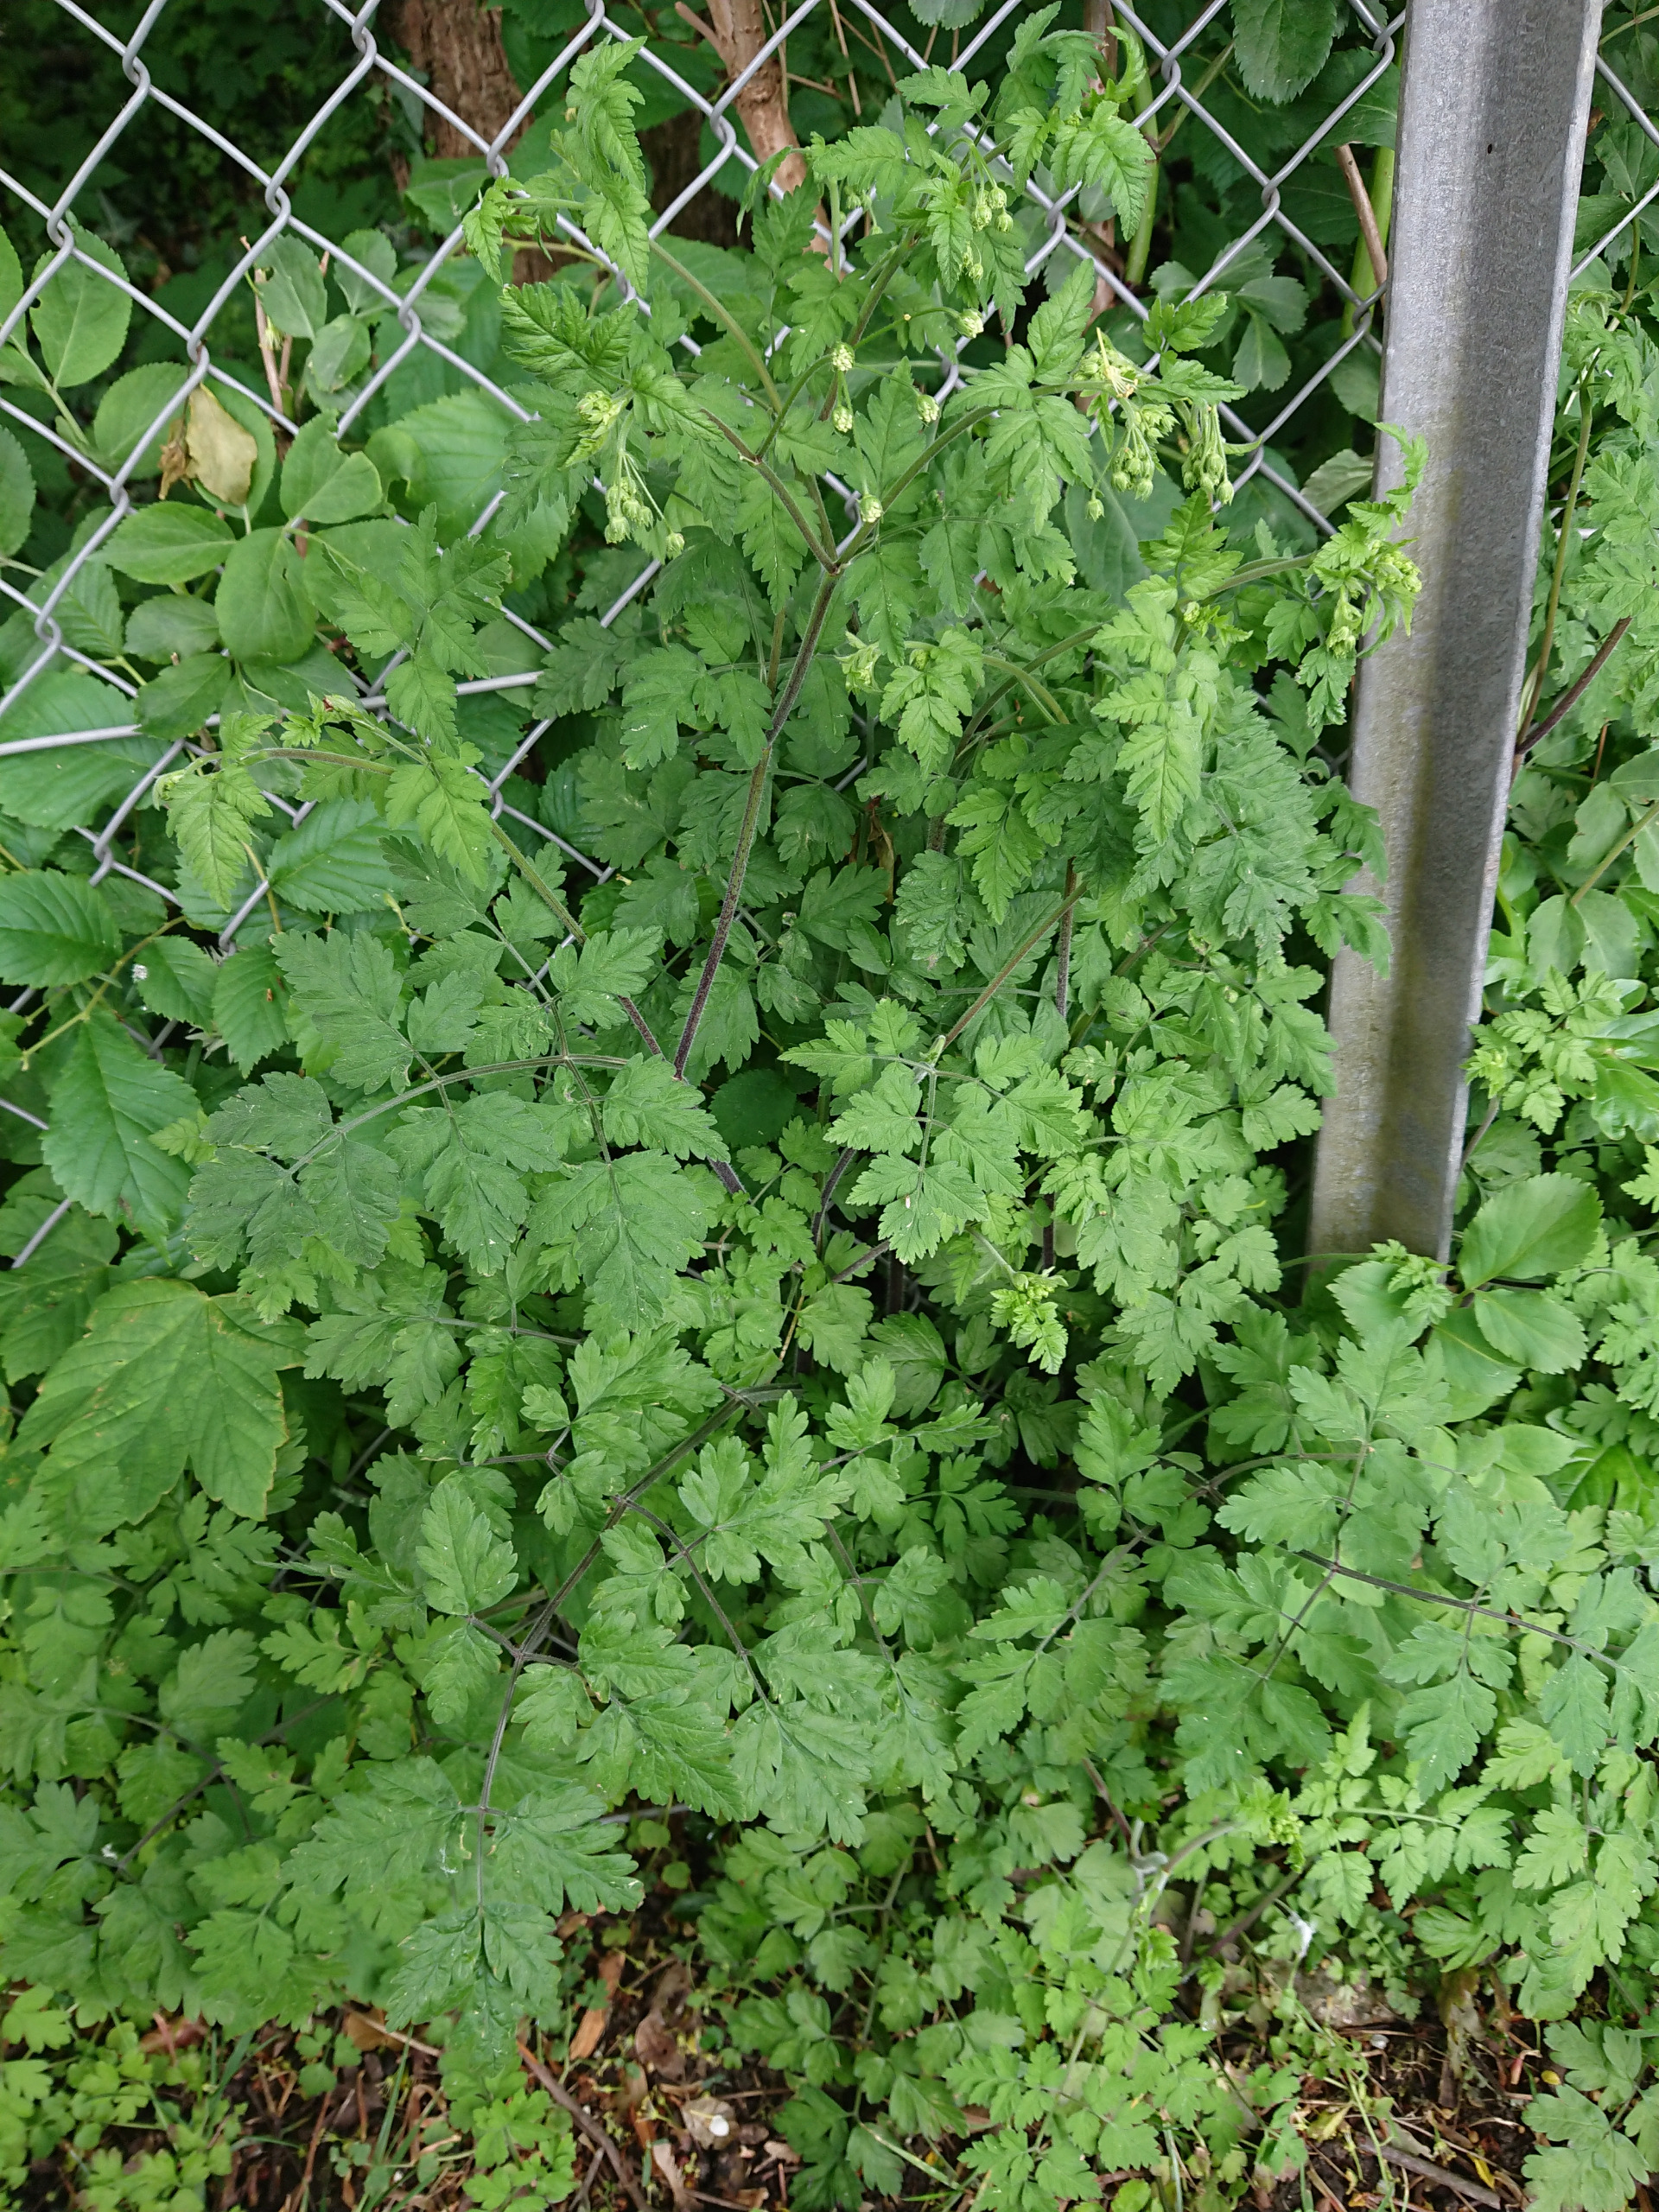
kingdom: Plantae
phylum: Tracheophyta
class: Magnoliopsida
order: Apiales
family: Apiaceae
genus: Chaerophyllum
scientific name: Chaerophyllum temulum
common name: Almindelig hulsvøb
